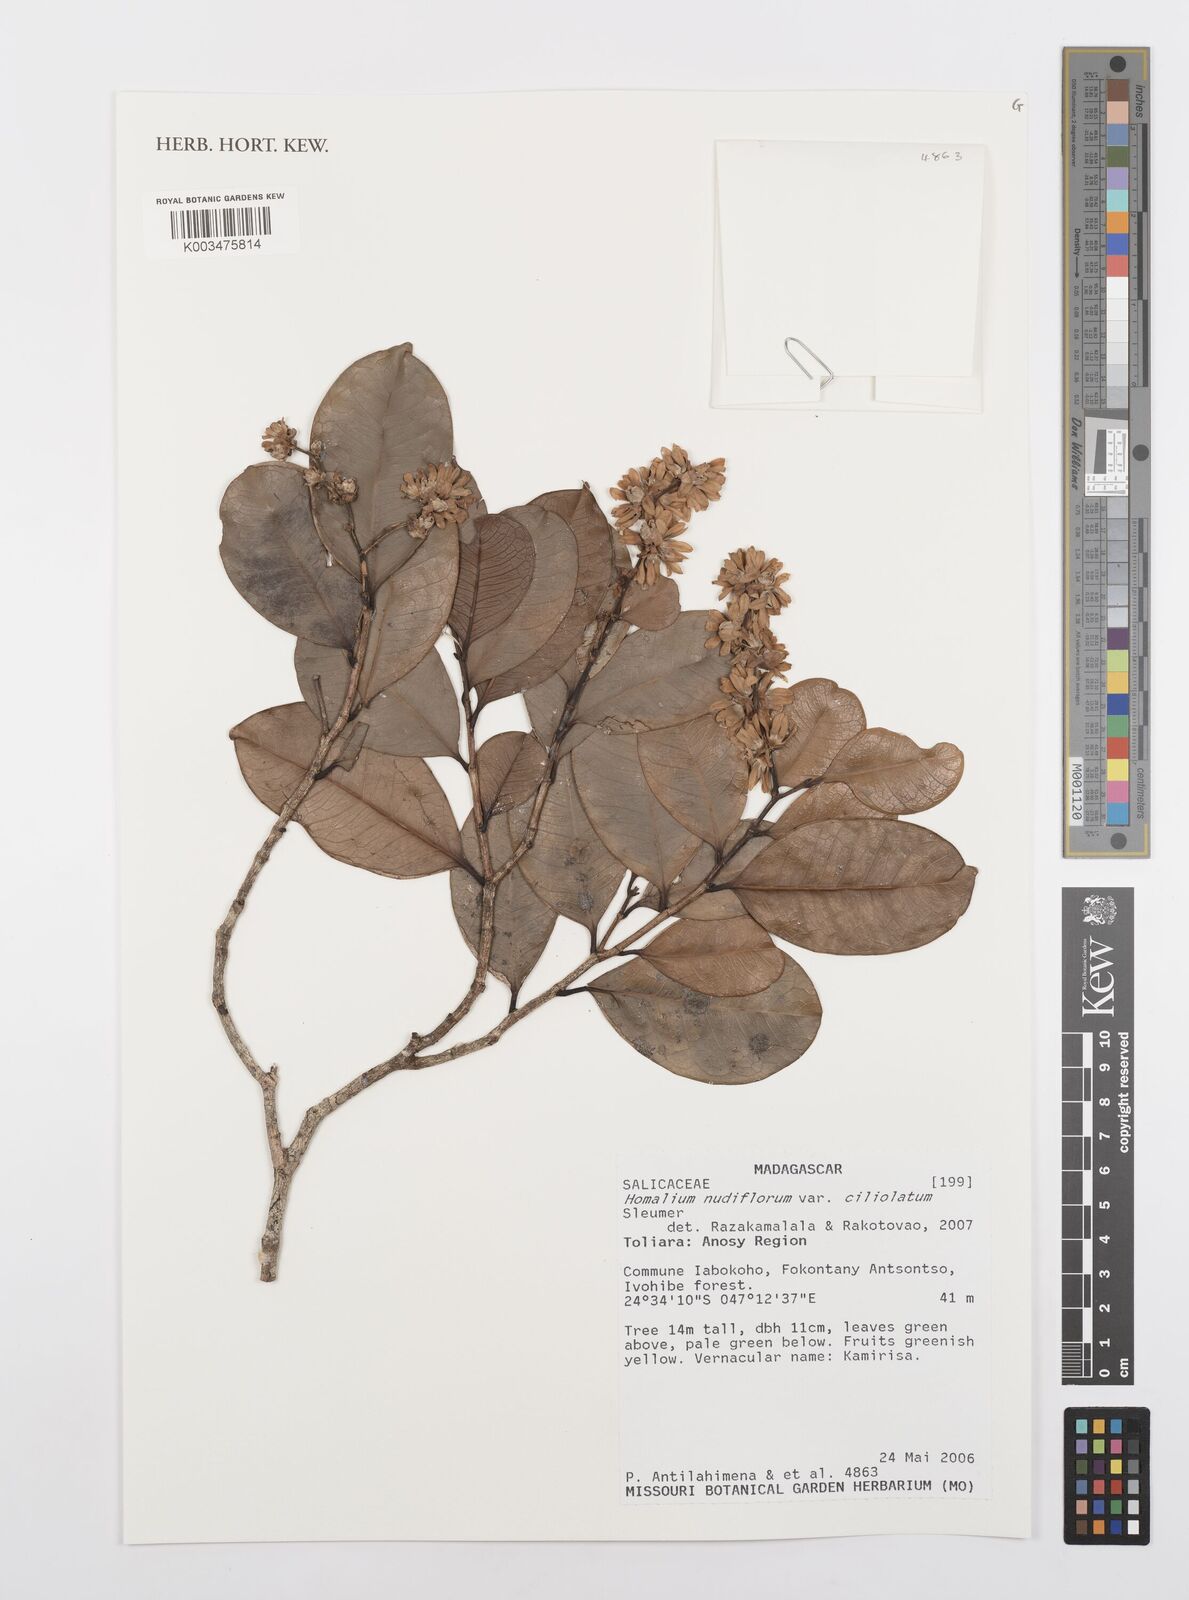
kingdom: Plantae
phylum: Tracheophyta
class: Magnoliopsida
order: Malpighiales
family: Salicaceae
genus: Homalium
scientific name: Homalium ciliolatum
